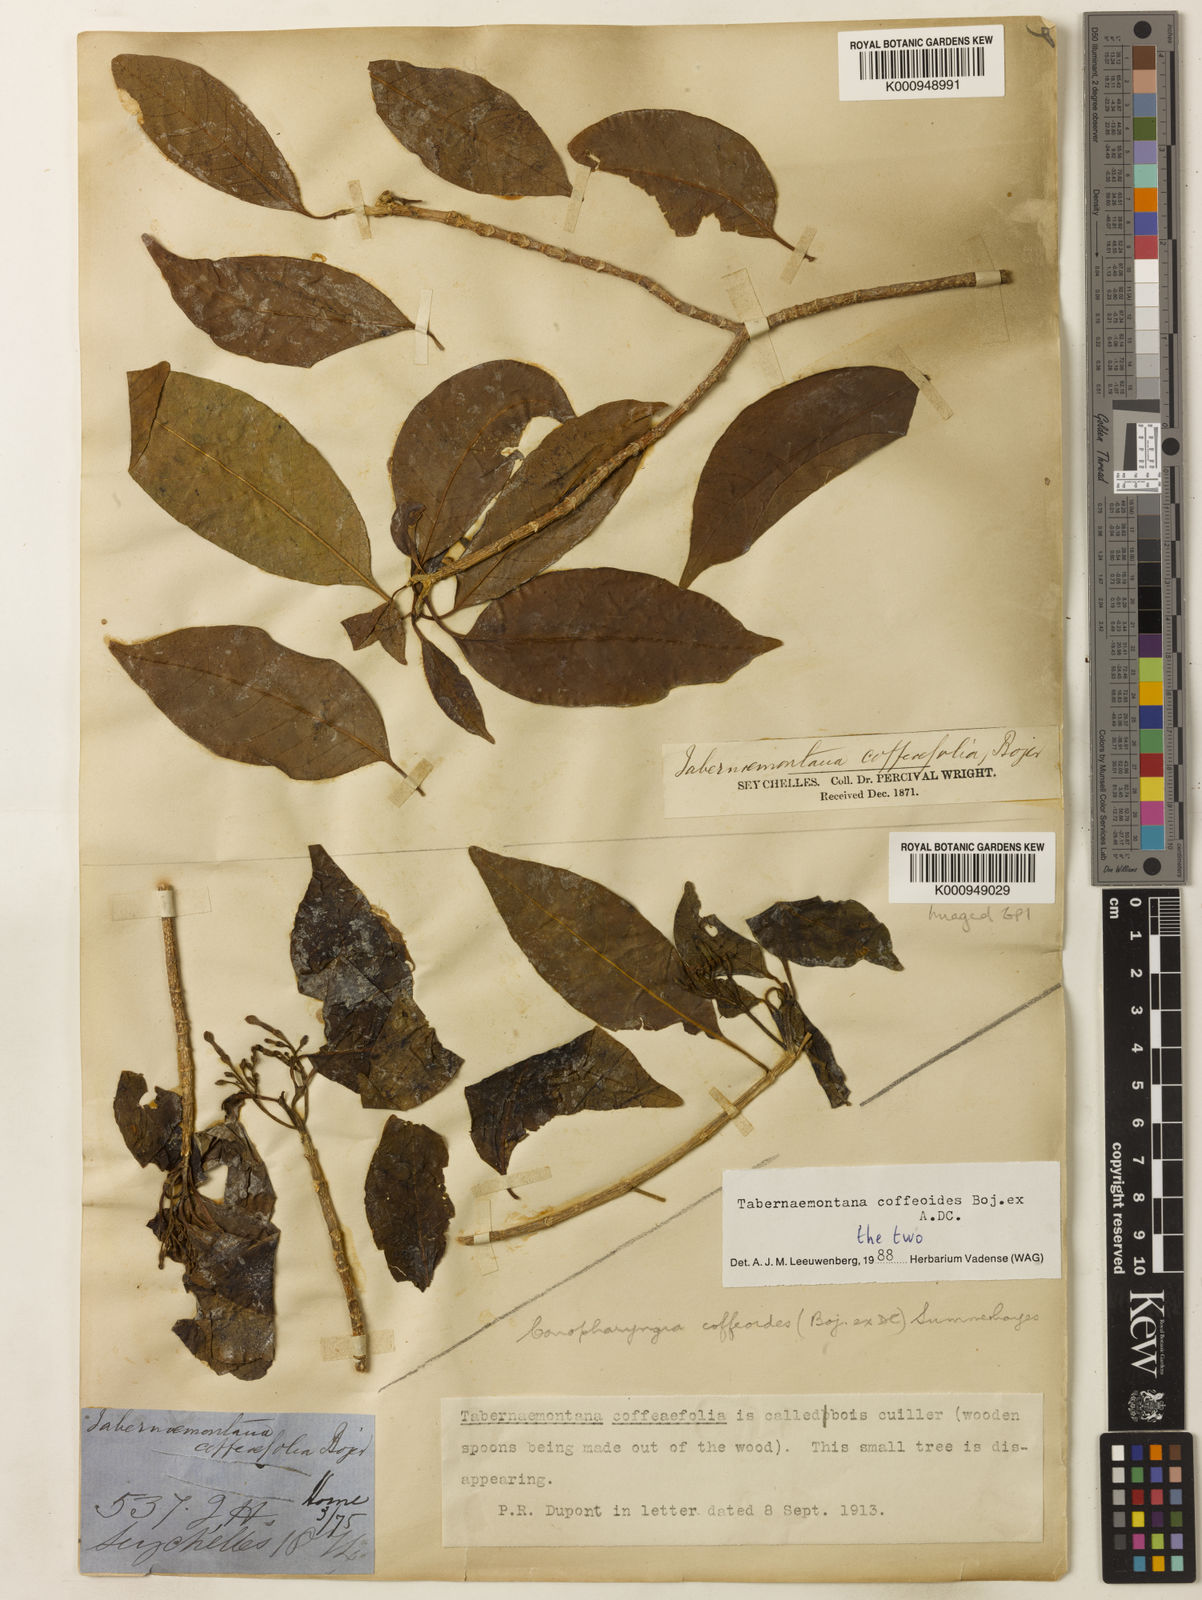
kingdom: Plantae
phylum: Tracheophyta
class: Magnoliopsida
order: Gentianales
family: Apocynaceae
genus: Tabernaemontana
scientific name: Tabernaemontana coffeoides
